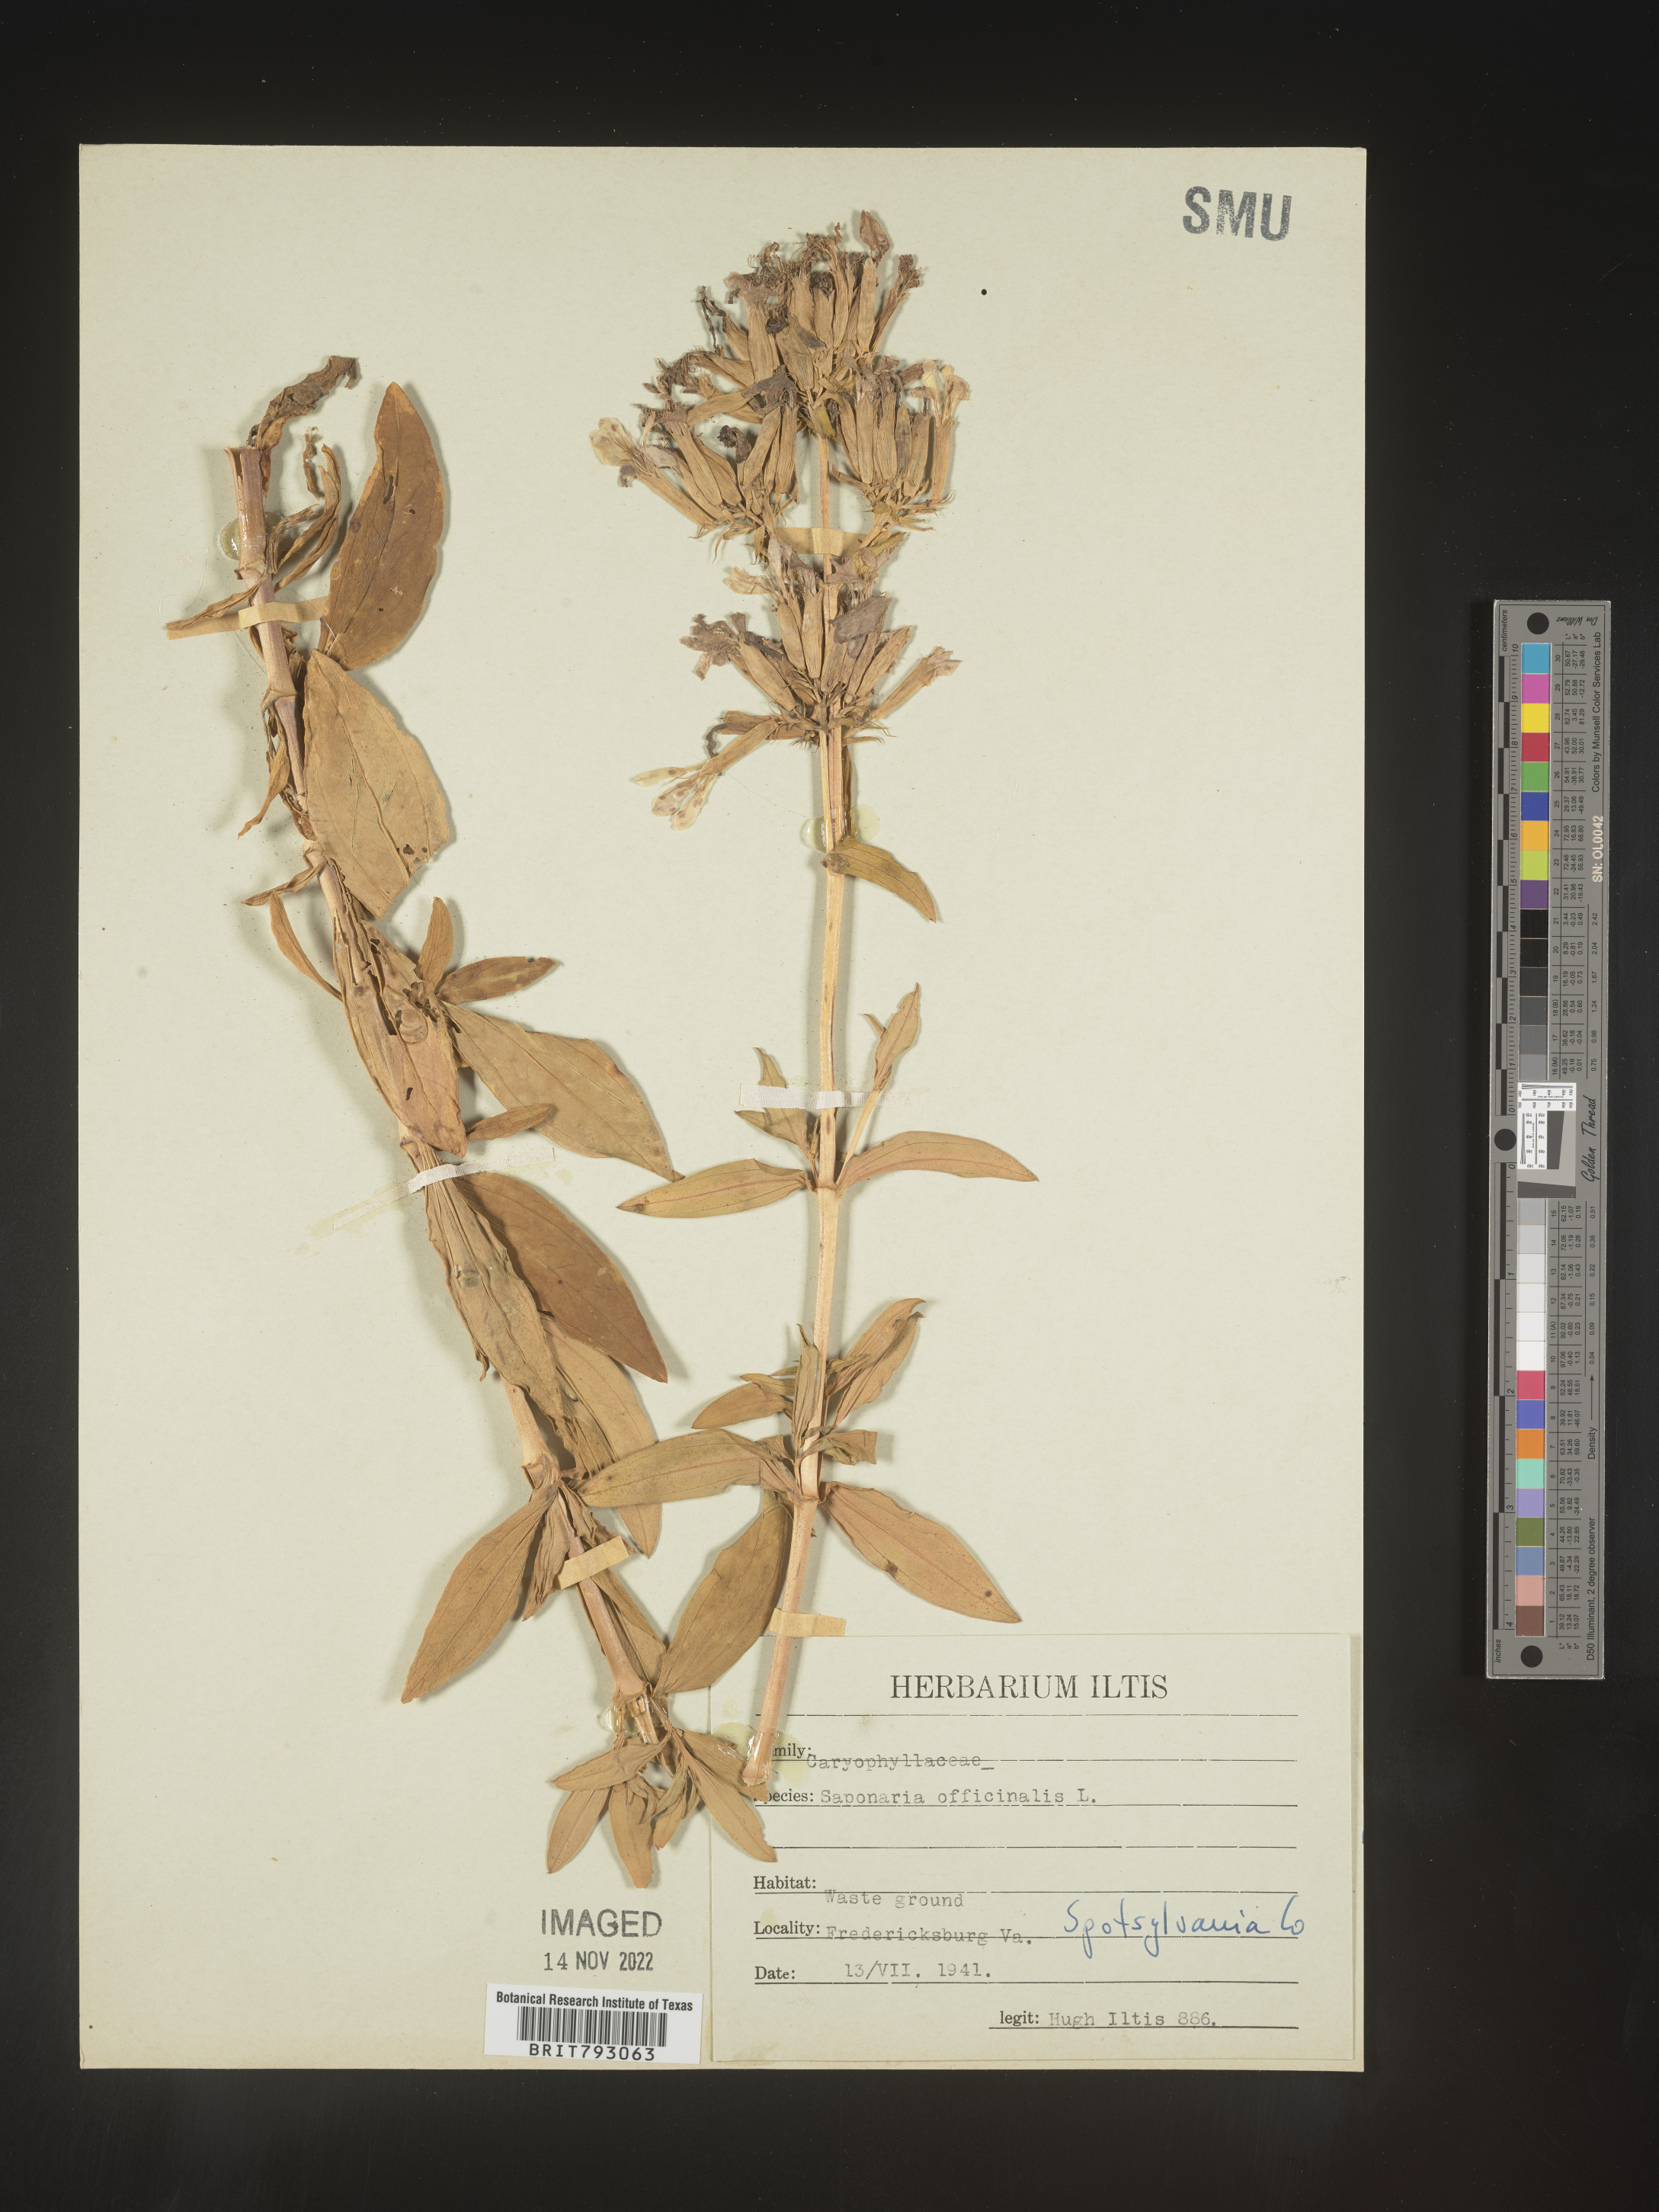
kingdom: Plantae
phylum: Tracheophyta
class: Magnoliopsida
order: Caryophyllales
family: Caryophyllaceae
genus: Saponaria
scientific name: Saponaria officinalis
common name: Soapwort
